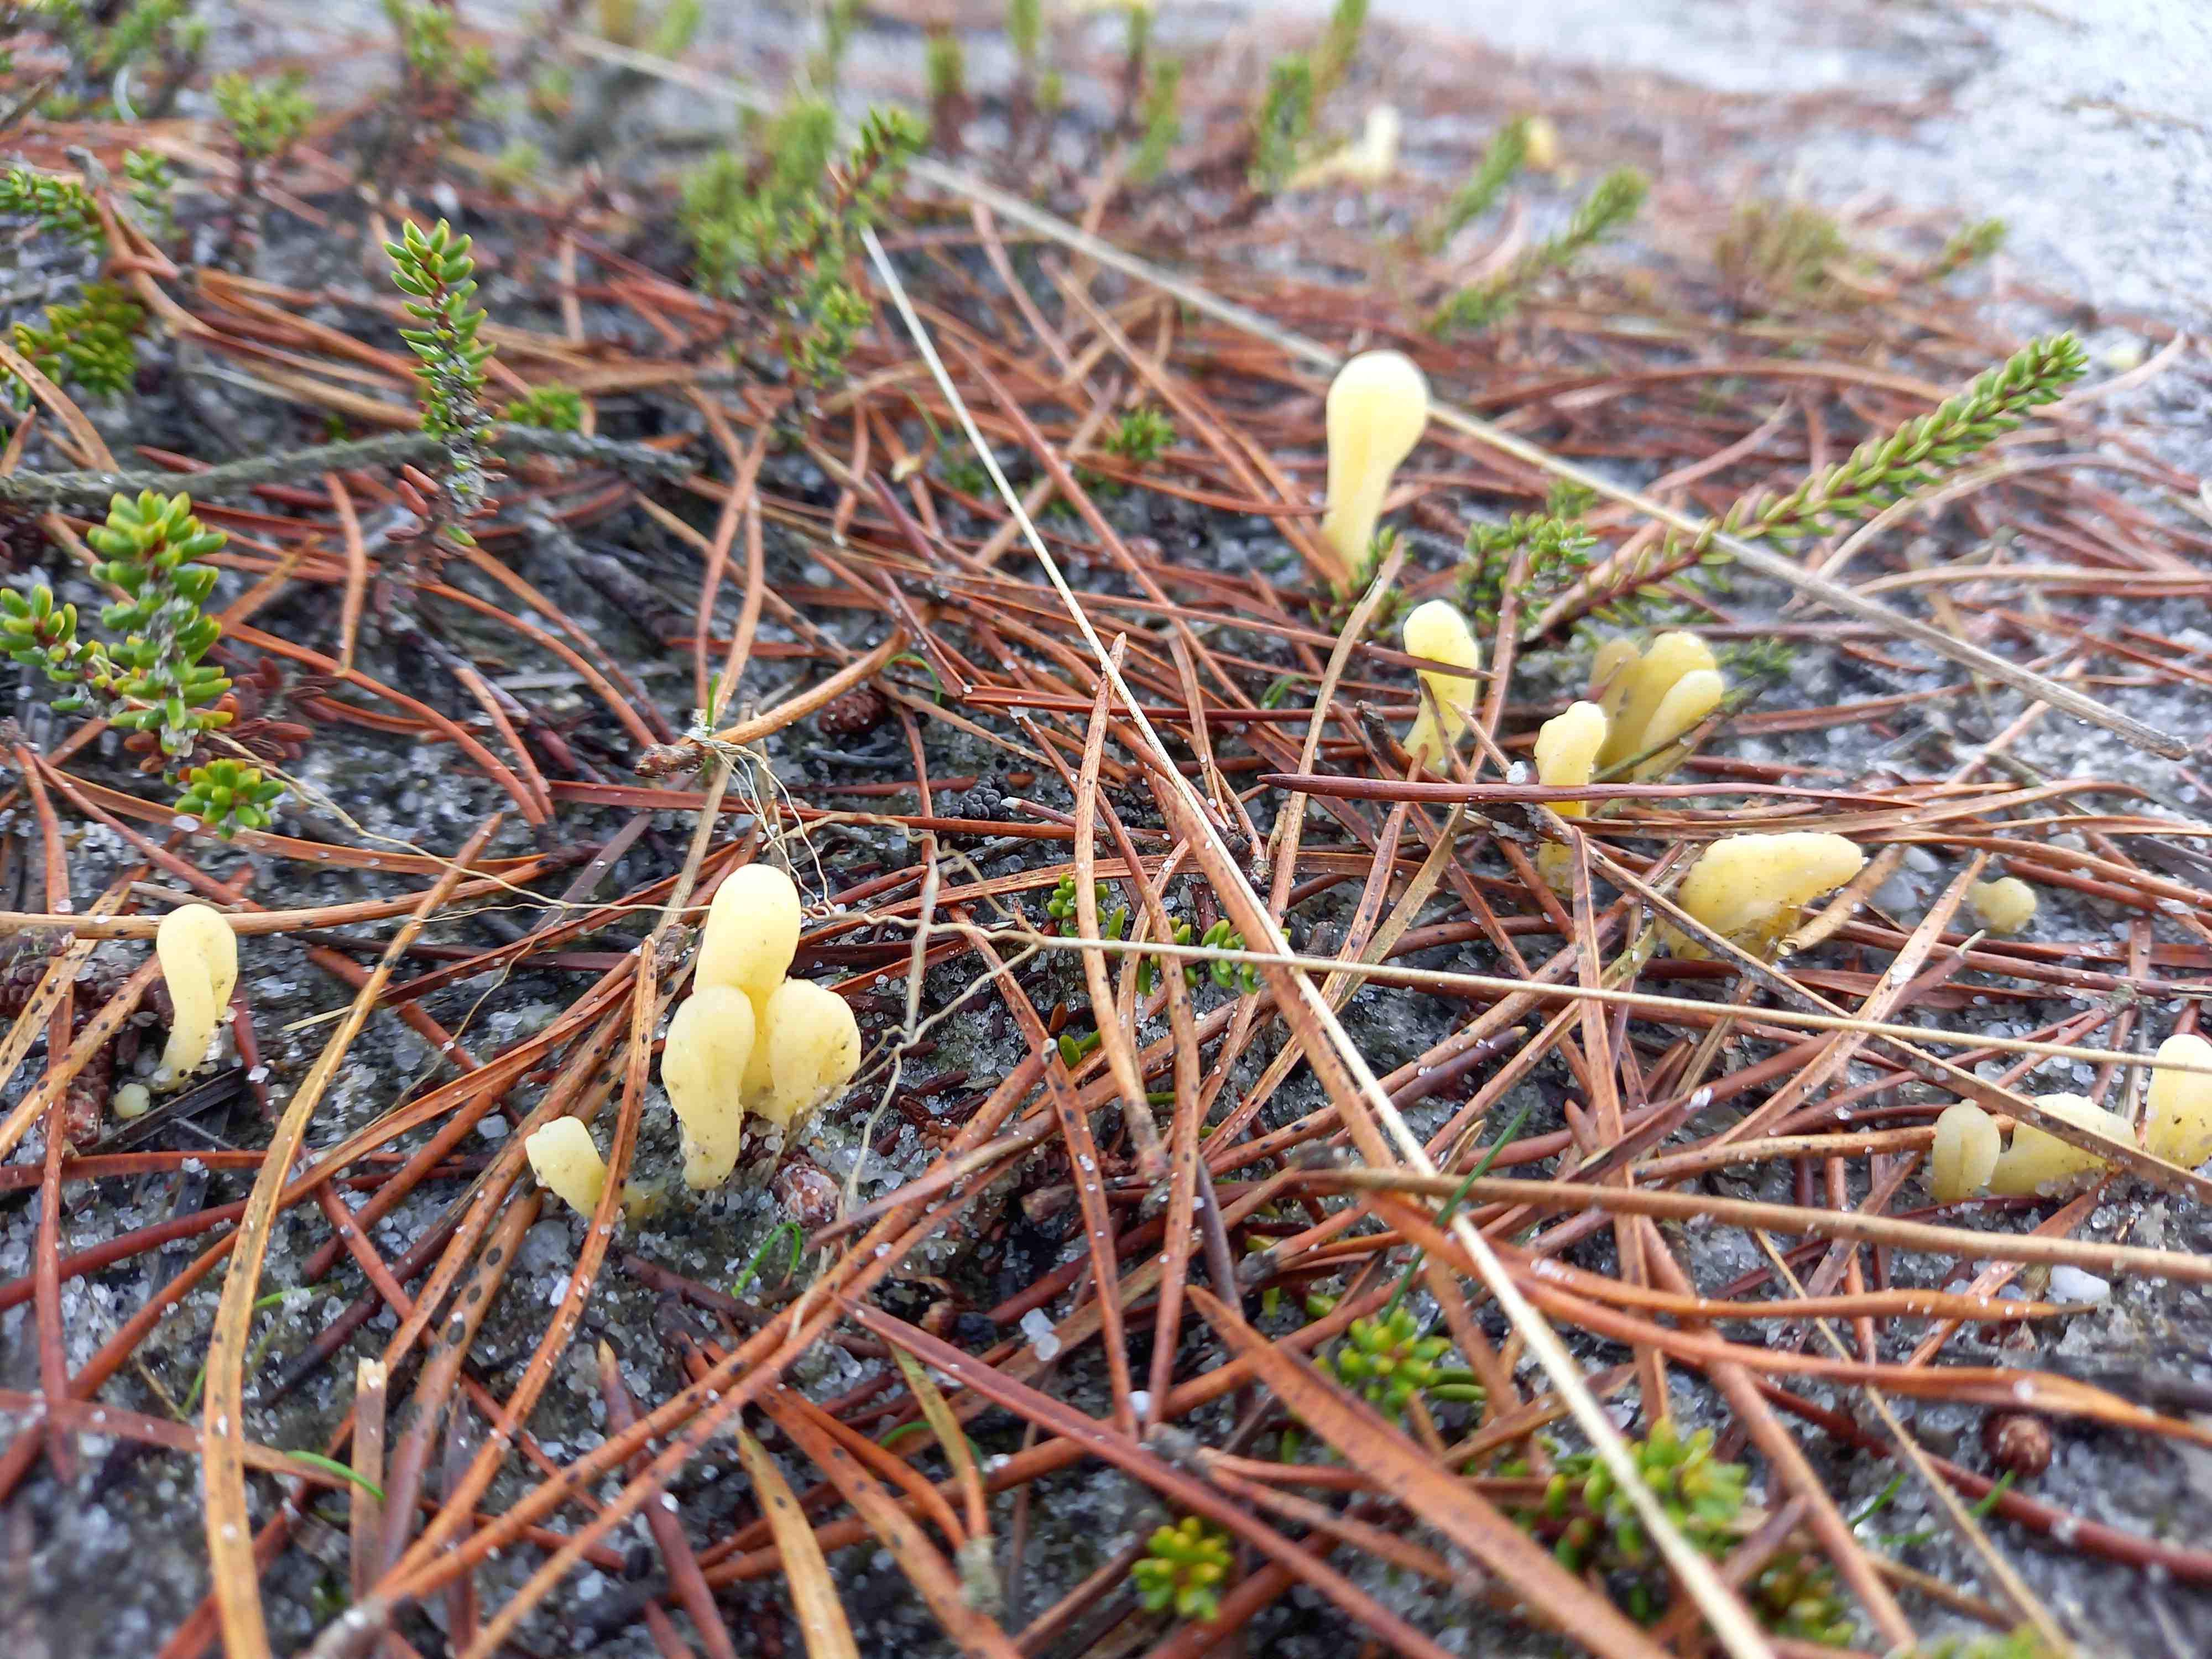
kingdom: Fungi
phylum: Basidiomycota
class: Agaricomycetes
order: Agaricales
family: Clavariaceae
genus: Clavaria
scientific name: Clavaria argillacea
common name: lerfarvet køllesvamp
